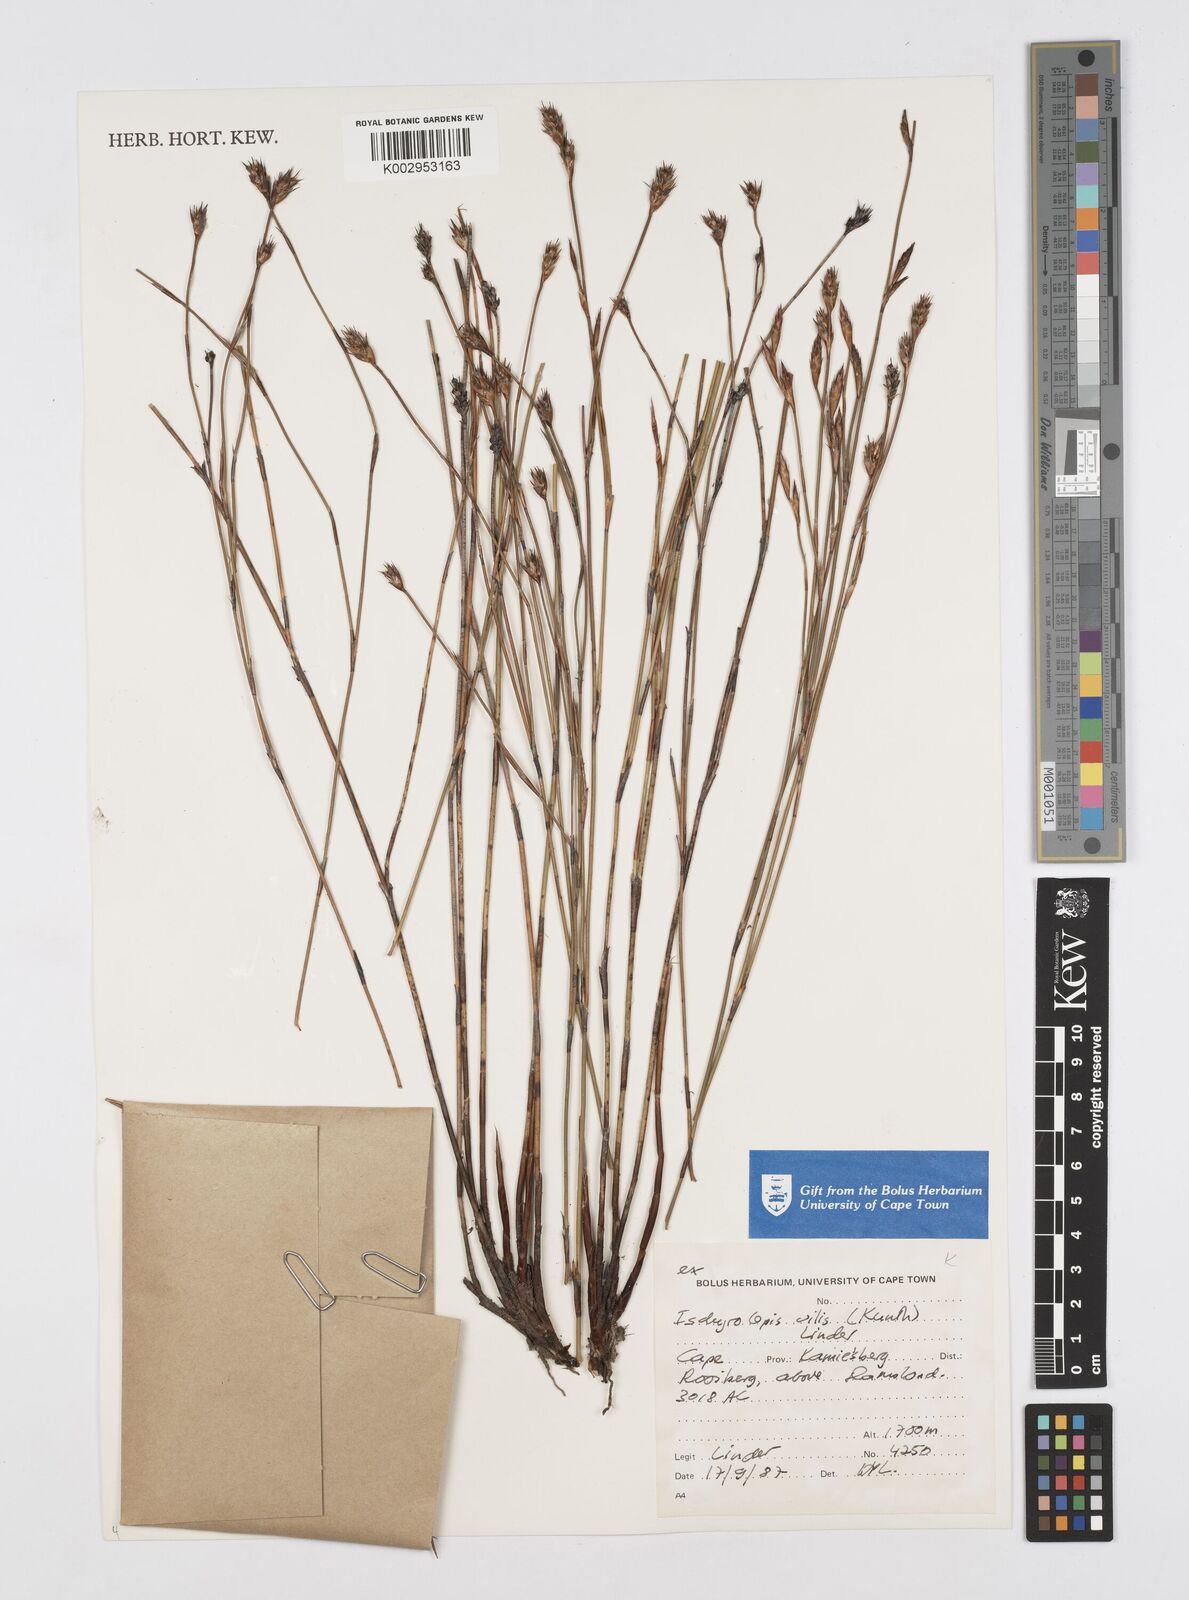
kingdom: Plantae
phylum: Tracheophyta
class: Liliopsida
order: Poales
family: Restionaceae
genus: Restio
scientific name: Restio vilis
